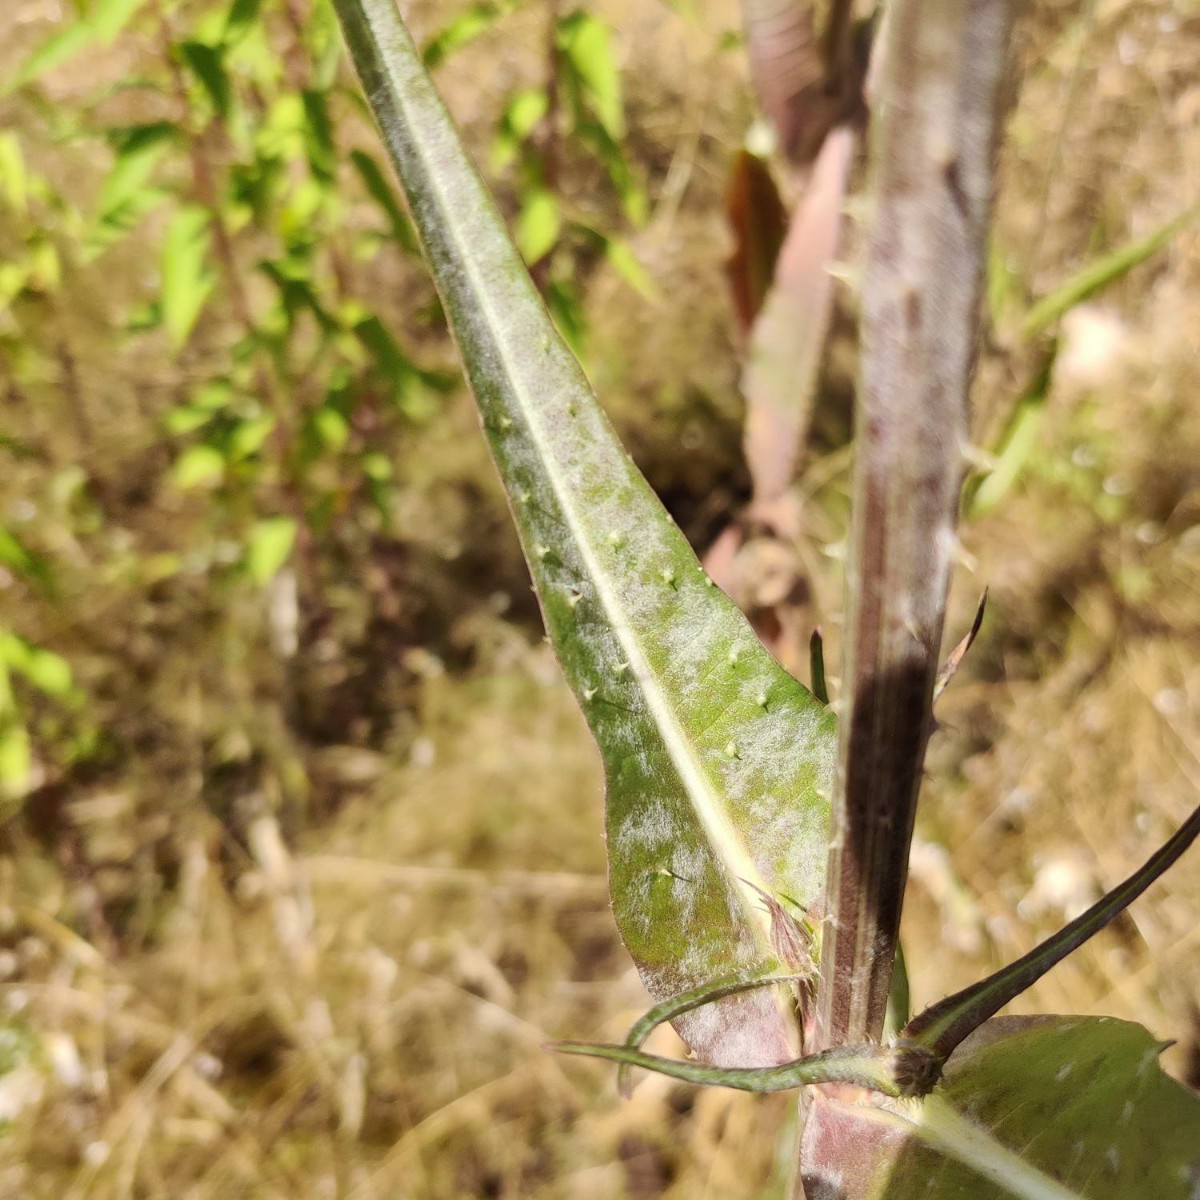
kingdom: Fungi
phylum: Ascomycota
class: Leotiomycetes
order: Helotiales
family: Erysiphaceae
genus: Podosphaera
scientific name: Podosphaera dipsacacearum
